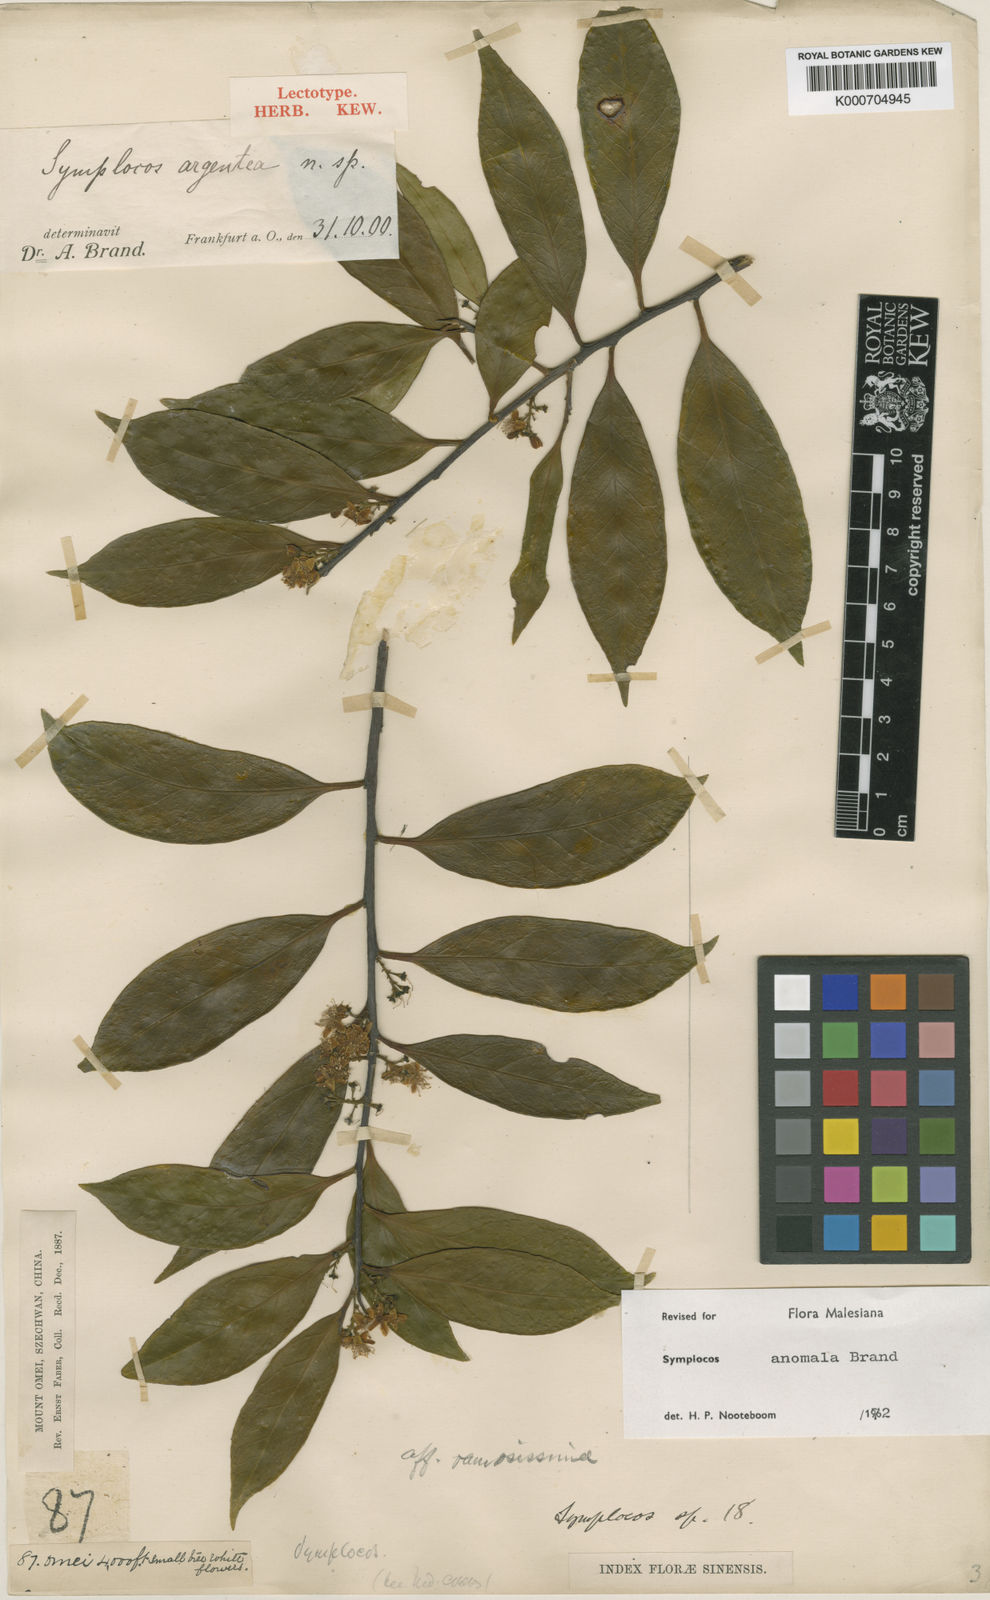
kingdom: Plantae
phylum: Tracheophyta
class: Magnoliopsida
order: Ericales
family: Symplocaceae
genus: Symplocos
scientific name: Symplocos anomala
